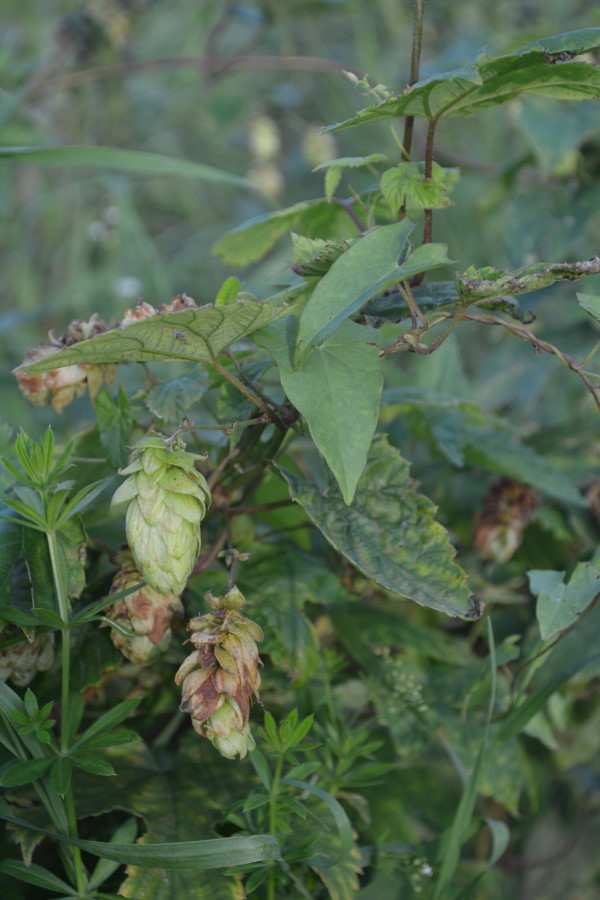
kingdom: Plantae
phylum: Tracheophyta
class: Magnoliopsida
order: Rosales
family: Cannabaceae
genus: Humulus
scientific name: Humulus lupulus
